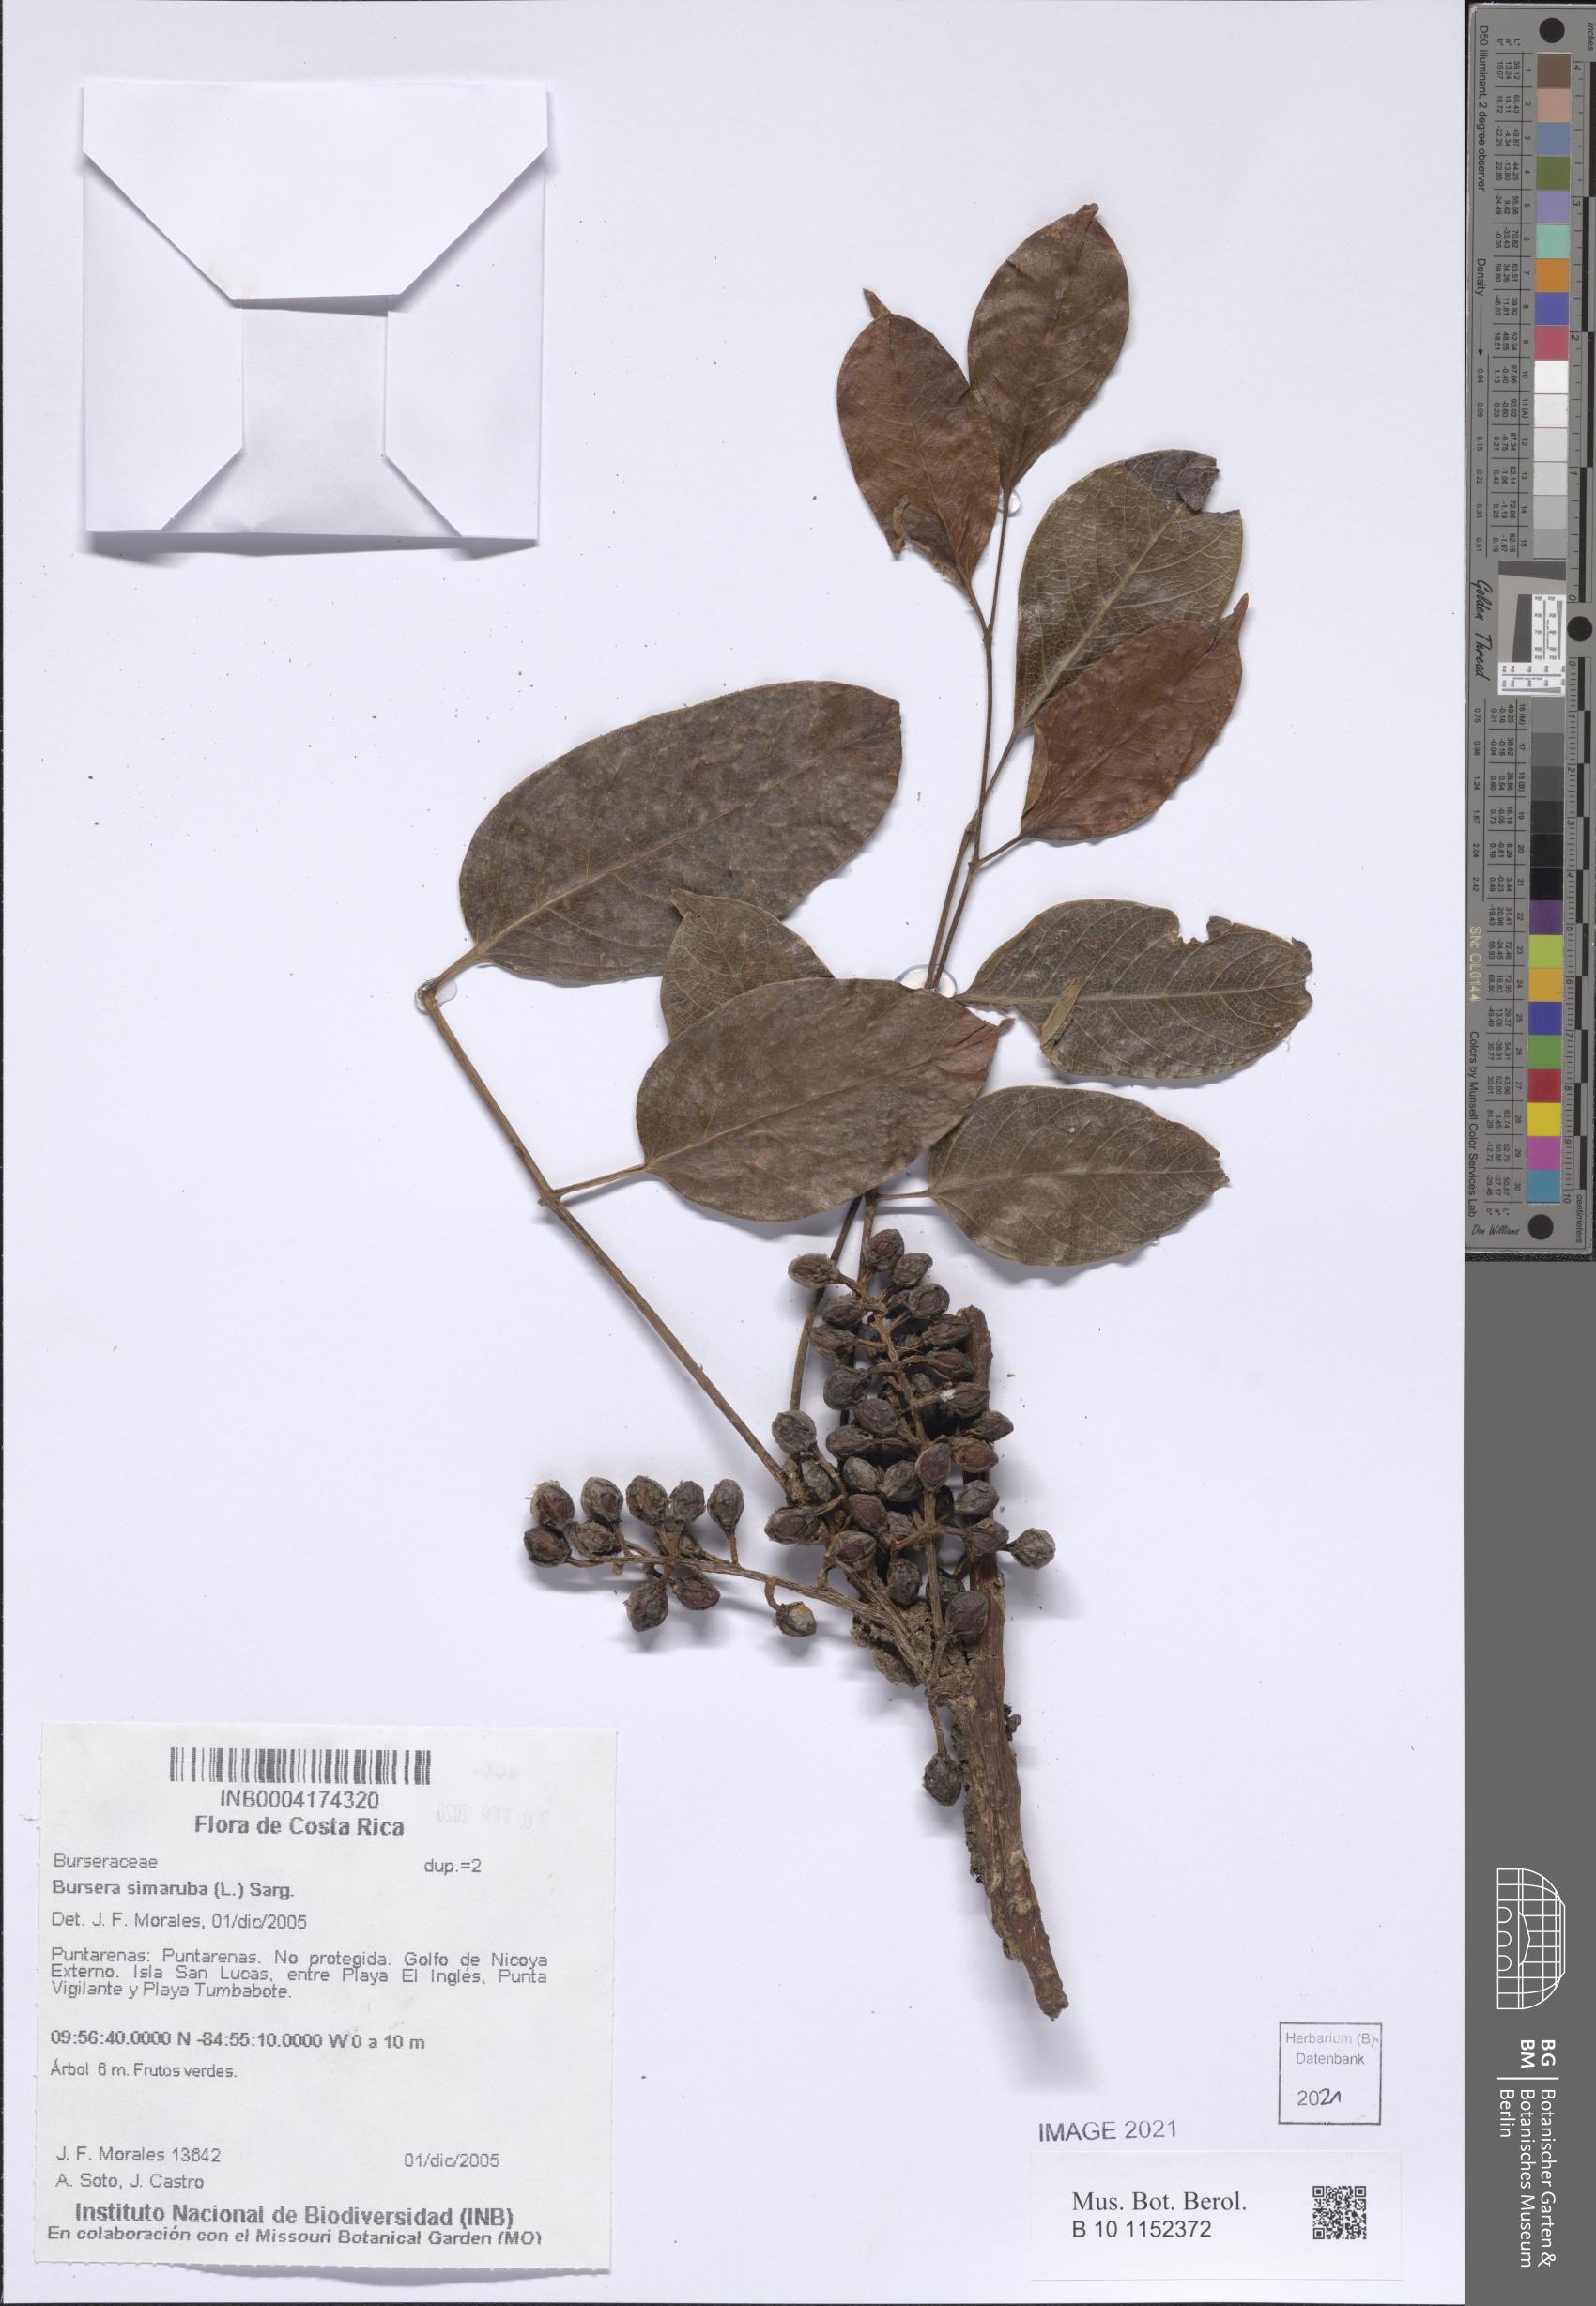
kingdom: Plantae
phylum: Tracheophyta
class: Magnoliopsida
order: Sapindales
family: Burseraceae
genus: Bursera
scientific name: Bursera simaruba
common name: Turpentine tree
